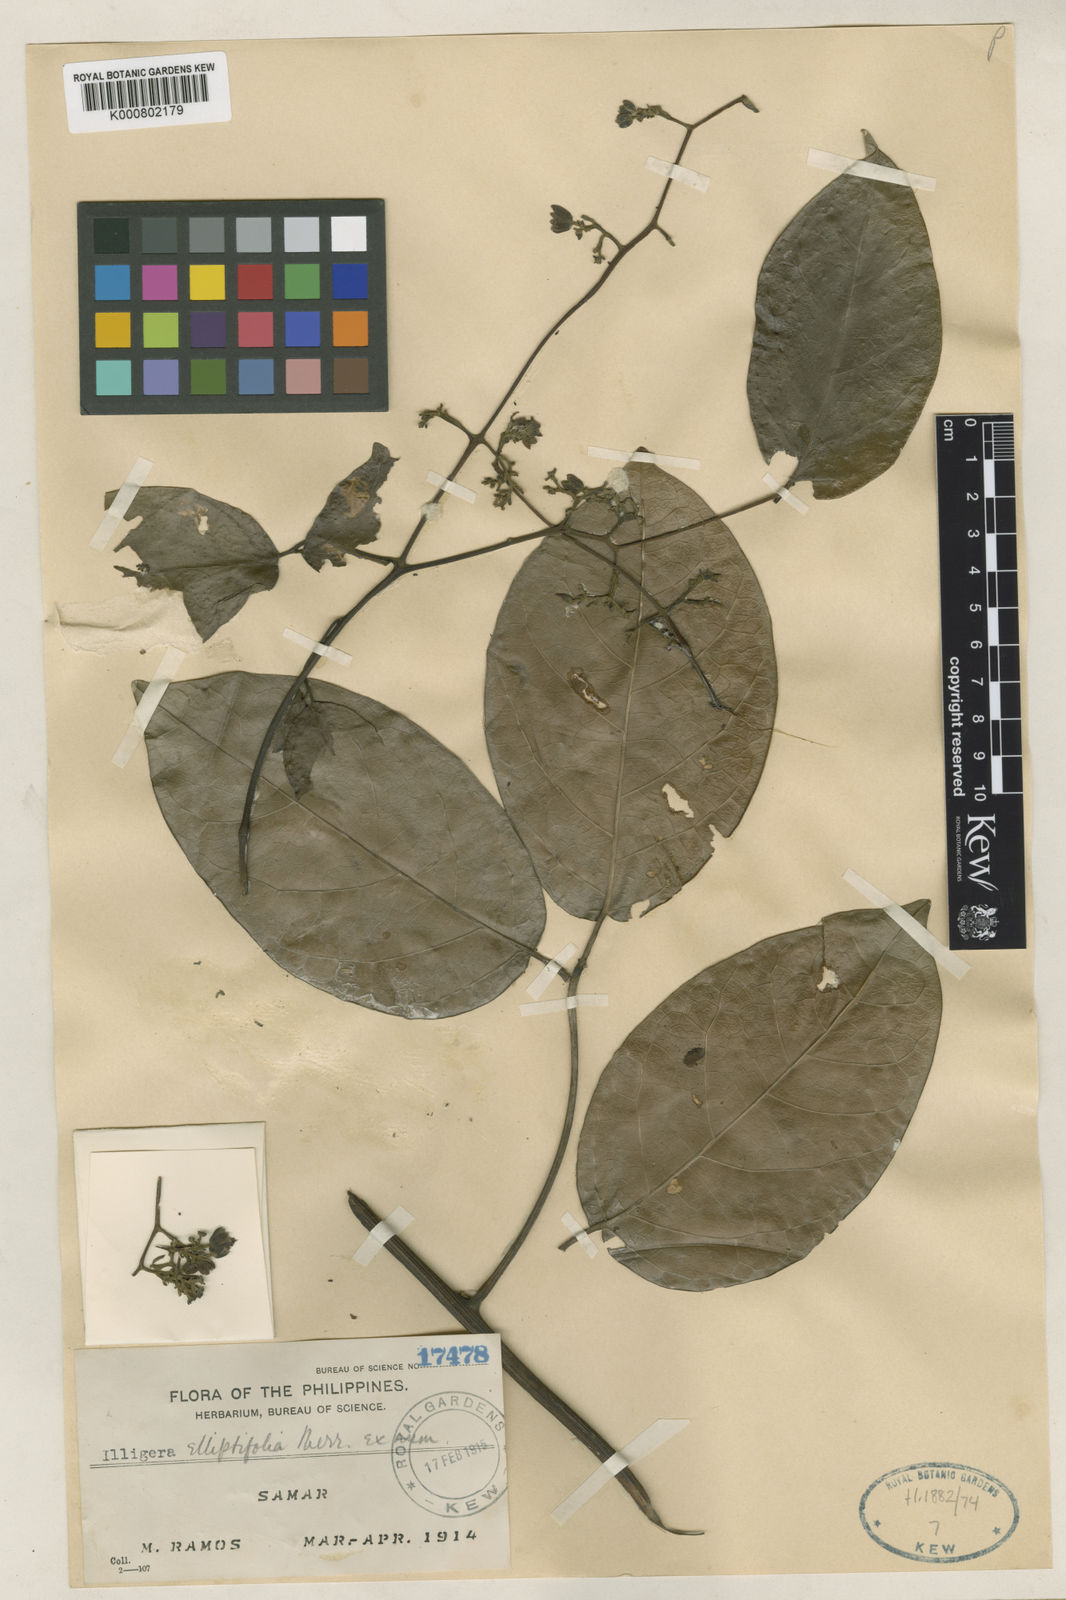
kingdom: Plantae
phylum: Tracheophyta
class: Magnoliopsida
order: Laurales
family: Hernandiaceae
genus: Illigera
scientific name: Illigera megaptera
